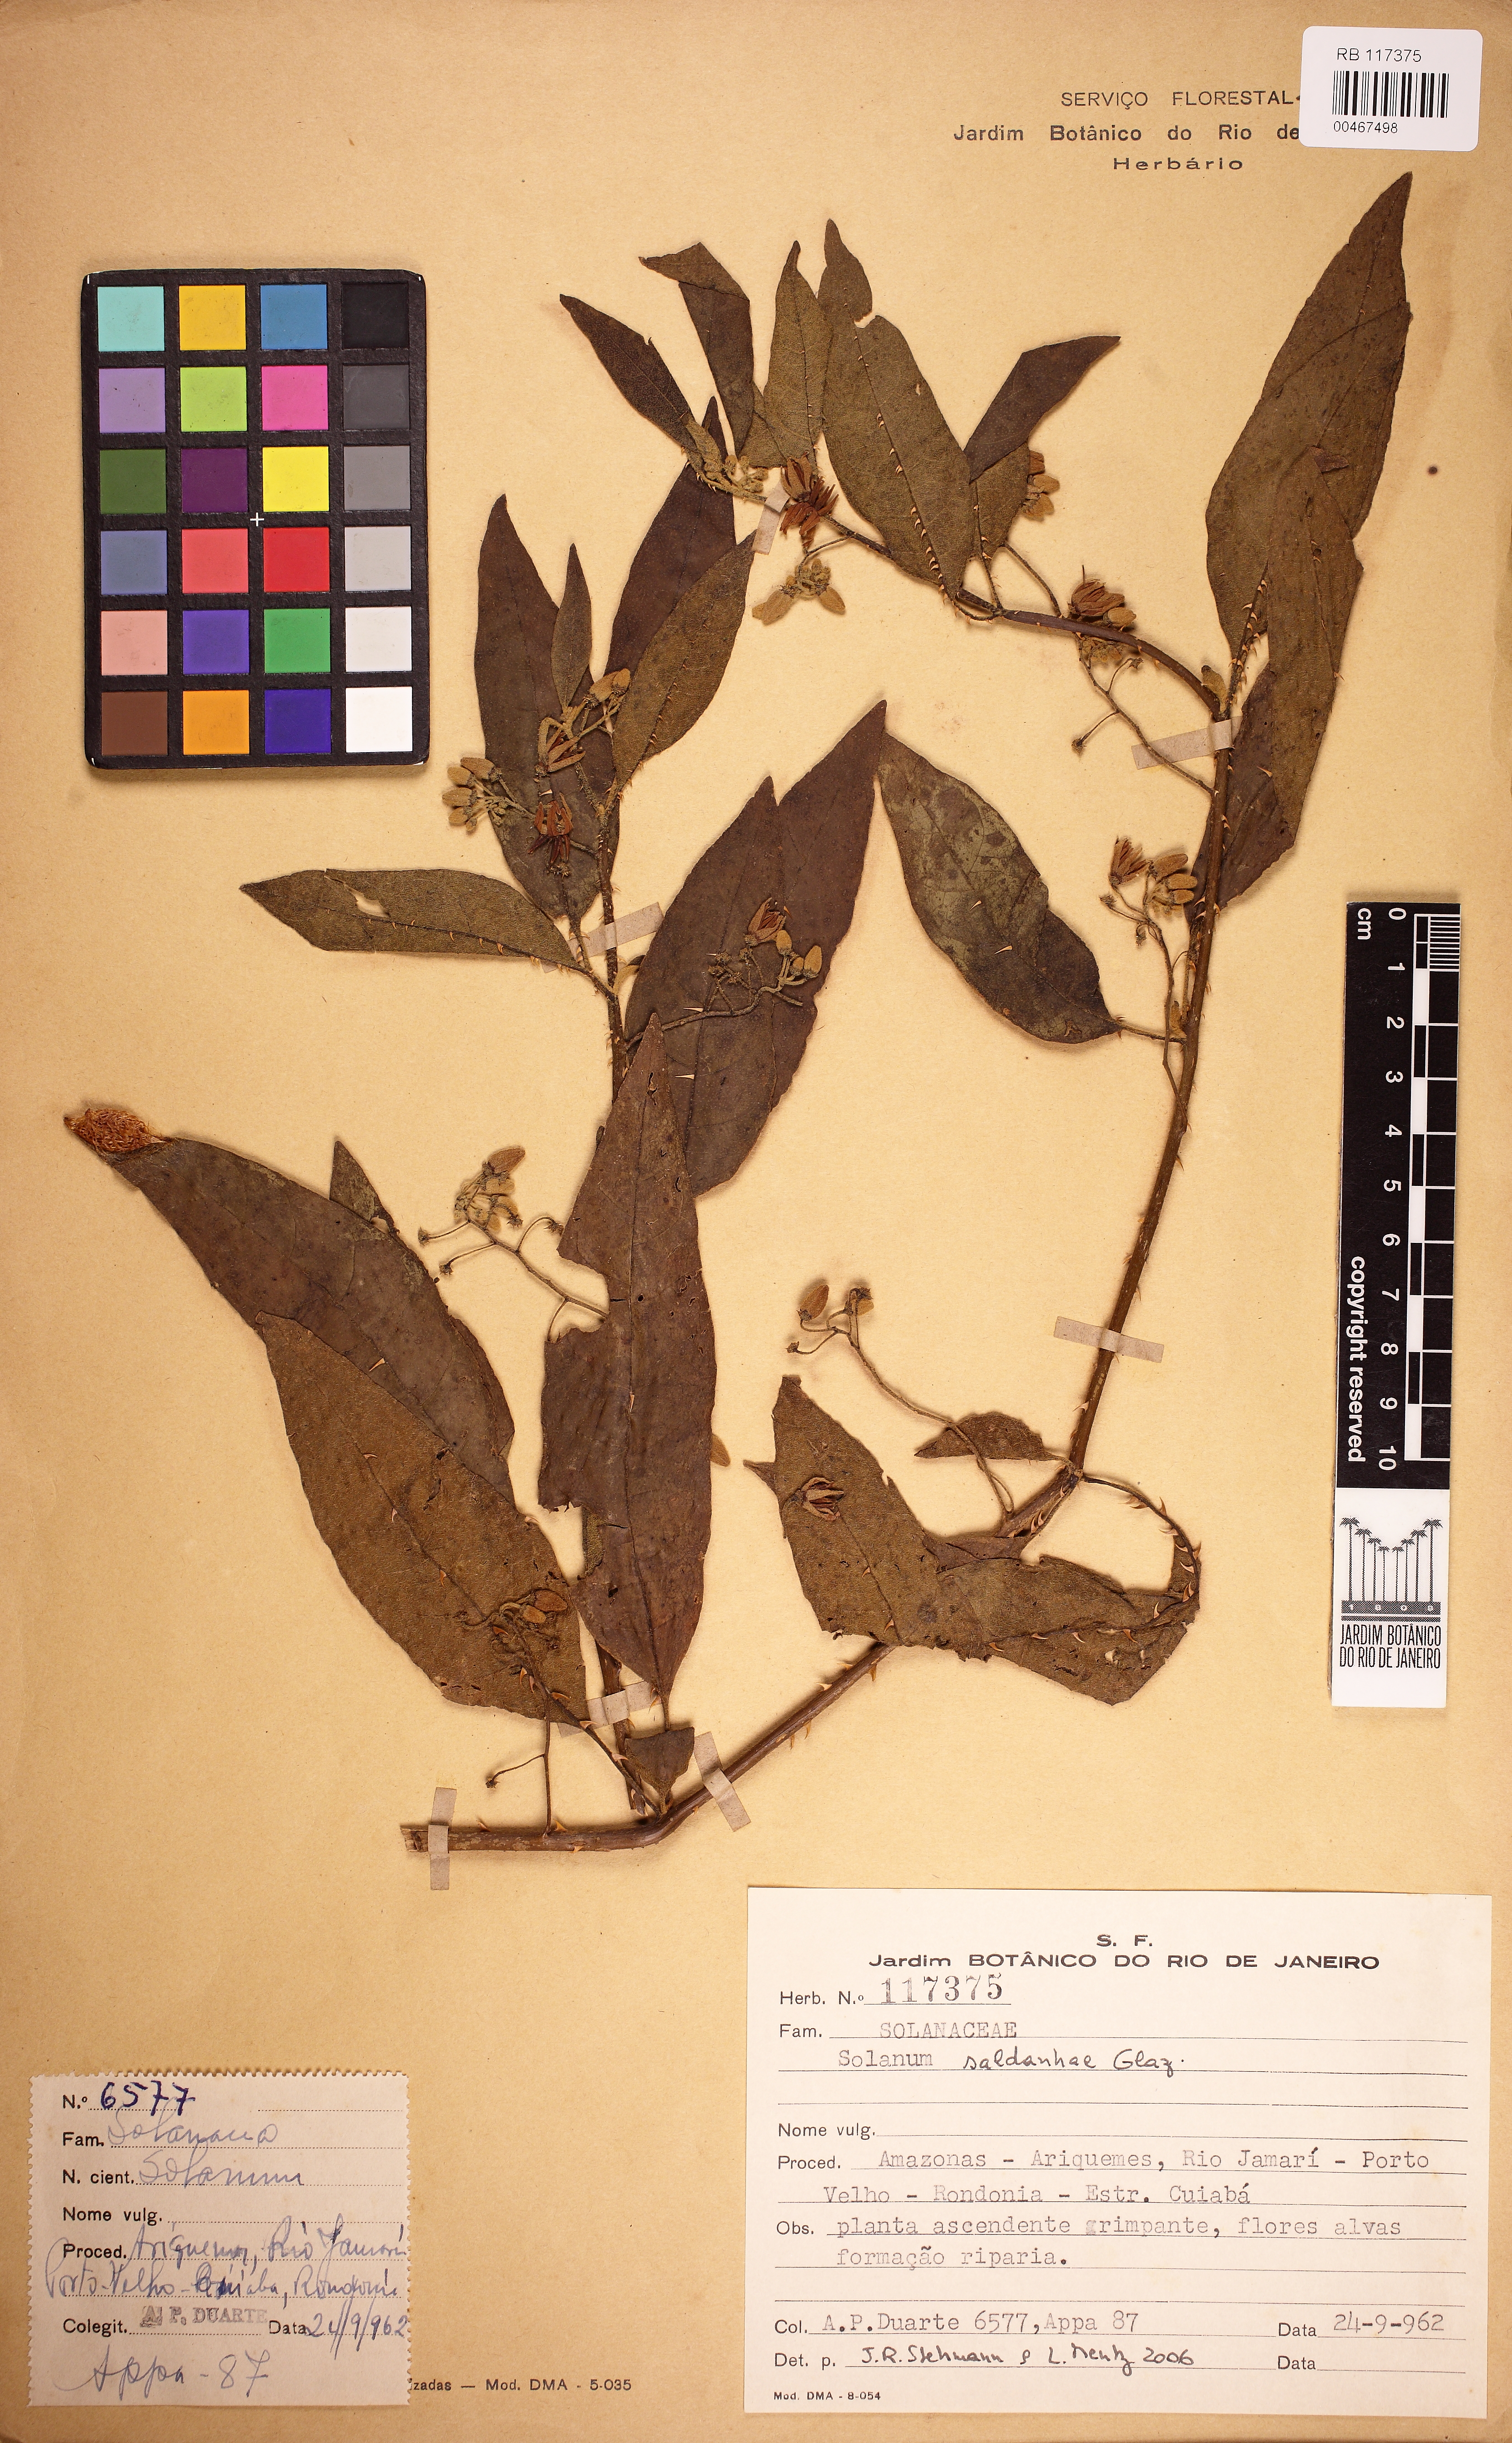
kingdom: Plantae
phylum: Tracheophyta
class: Magnoliopsida
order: Solanales
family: Solanaceae
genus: Solanum
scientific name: Solanum saldanhae
